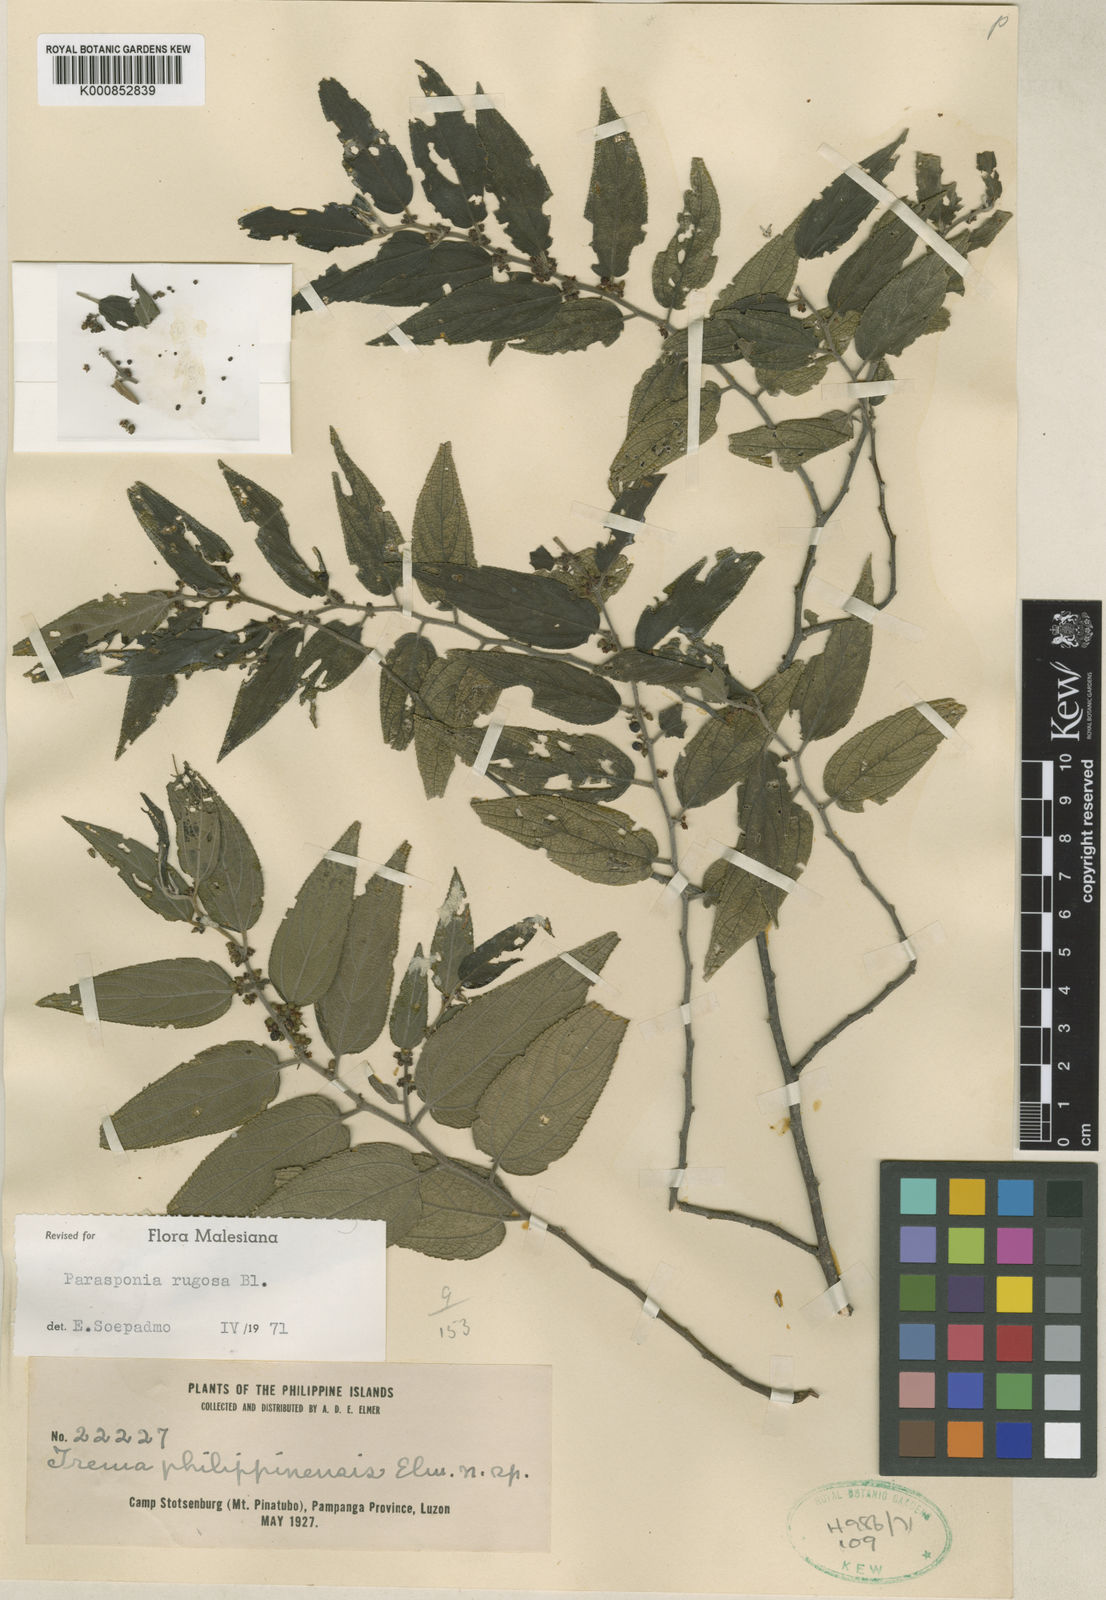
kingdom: Plantae
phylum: Tracheophyta
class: Magnoliopsida
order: Rosales
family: Cannabaceae
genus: Trema
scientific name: Trema eurhynchum
